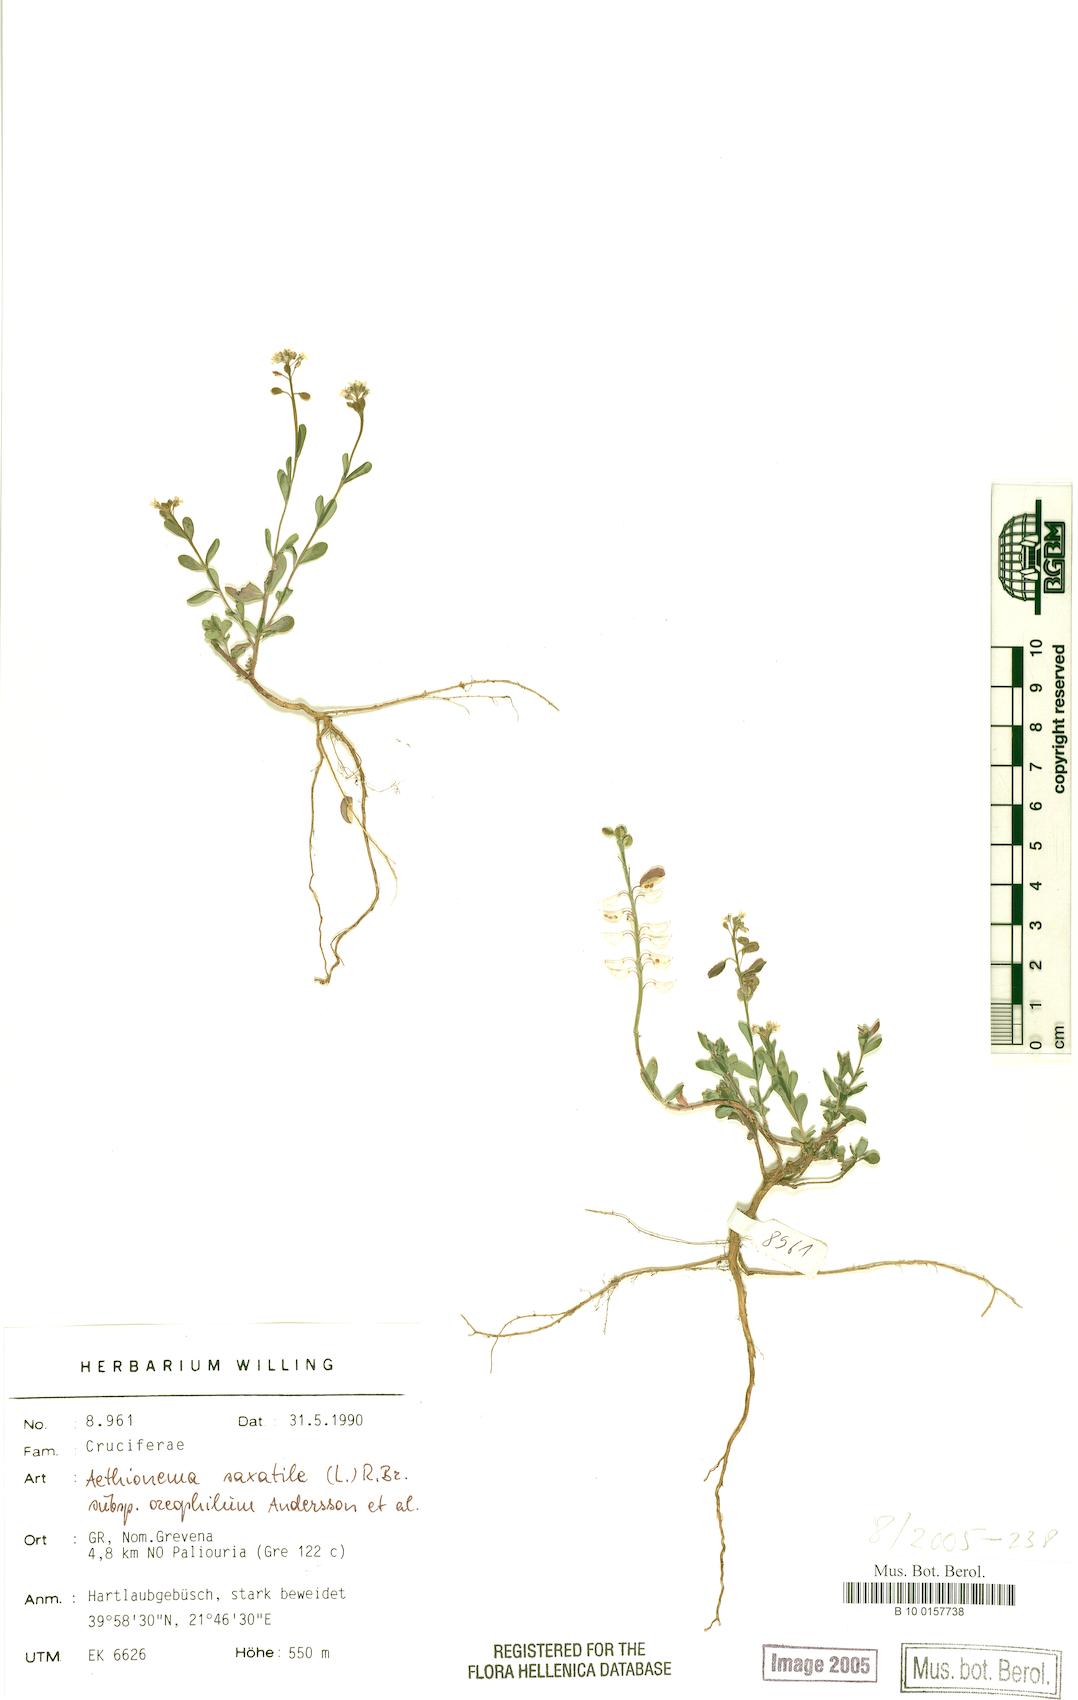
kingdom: Plantae
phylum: Tracheophyta
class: Magnoliopsida
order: Brassicales
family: Brassicaceae
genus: Aethionema
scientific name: Aethionema saxatile
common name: Burnt candytuft
